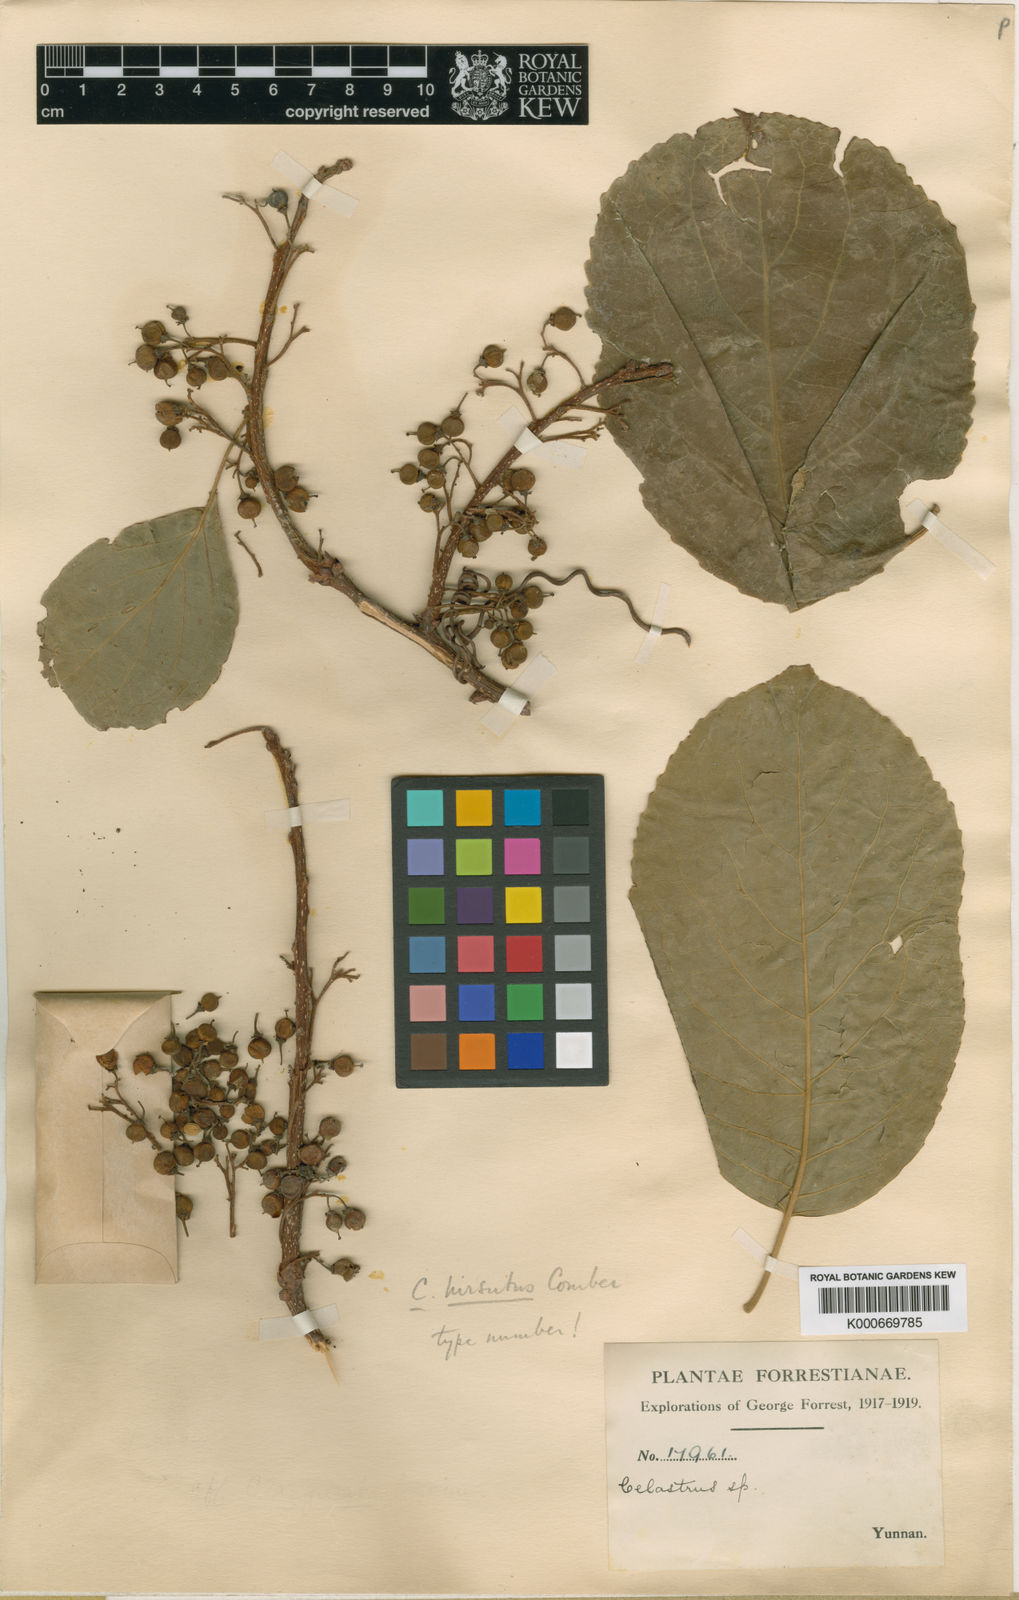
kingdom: Plantae
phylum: Tracheophyta
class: Magnoliopsida
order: Celastrales
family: Celastraceae
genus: Celastrus
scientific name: Celastrus hirsutus
